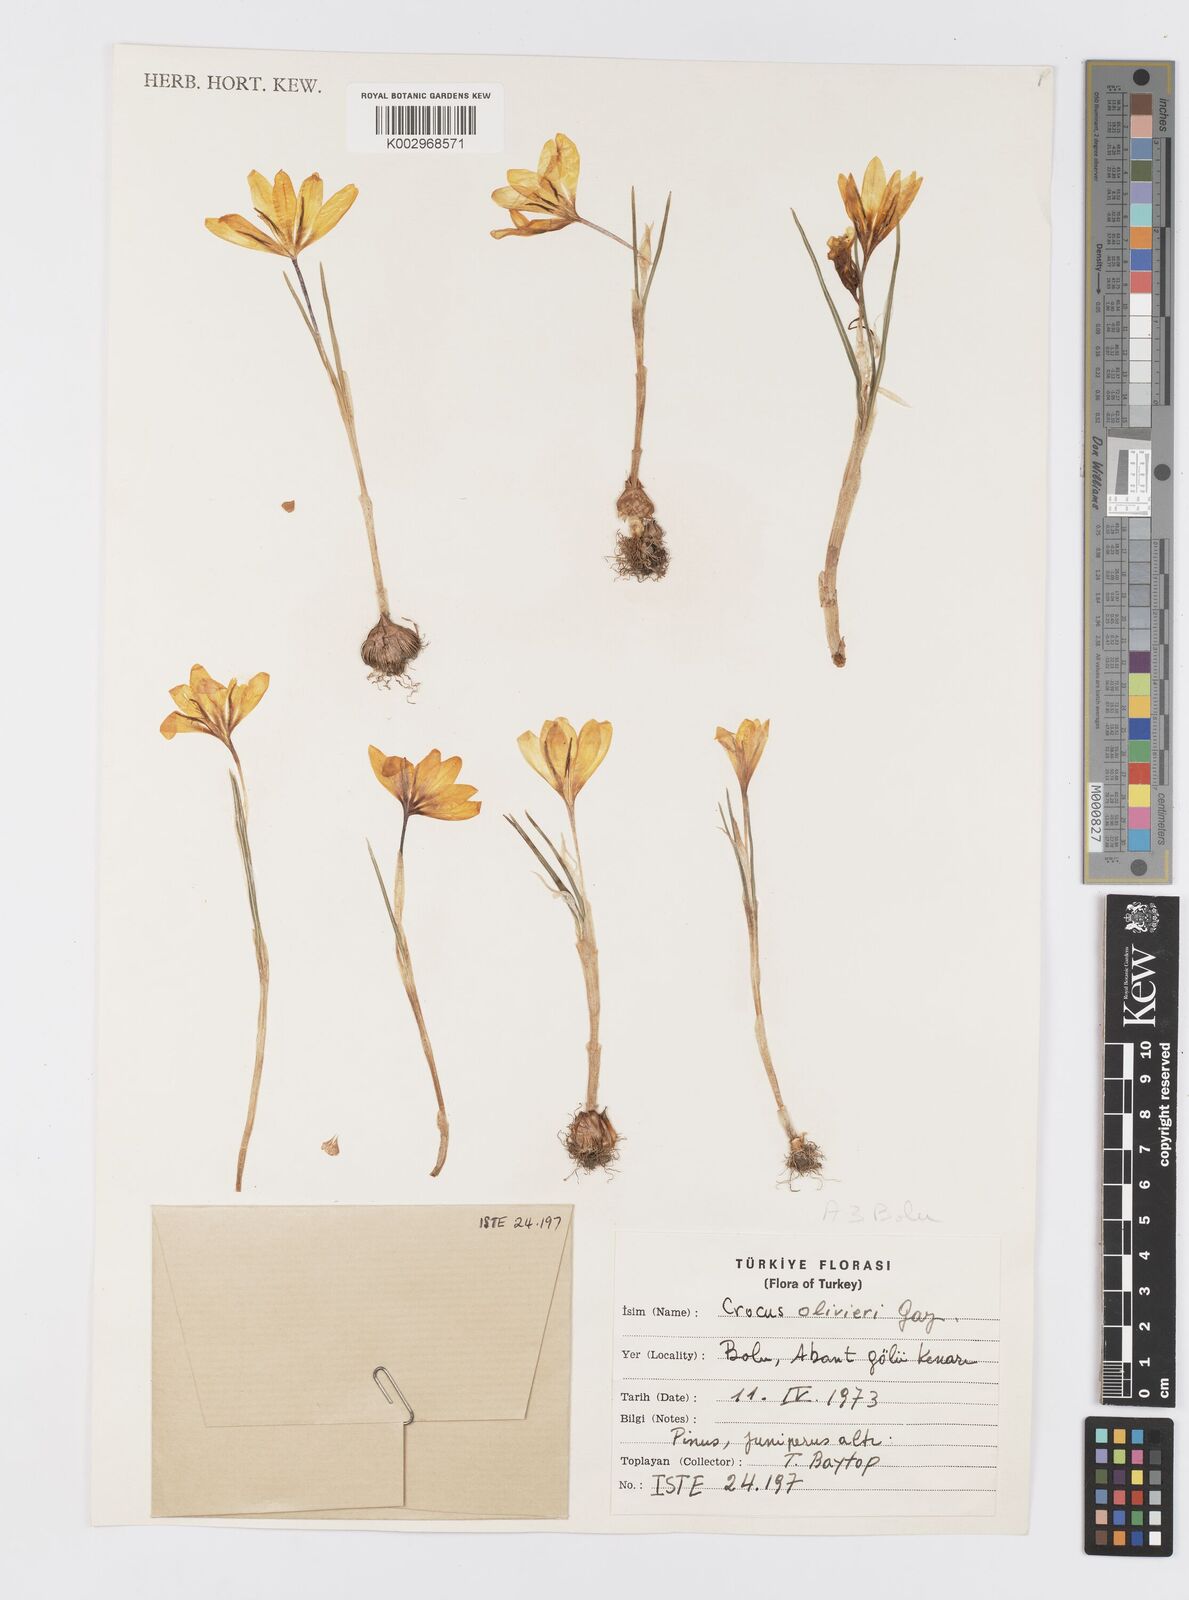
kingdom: Plantae
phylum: Tracheophyta
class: Liliopsida
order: Asparagales
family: Iridaceae
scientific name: Iridaceae
